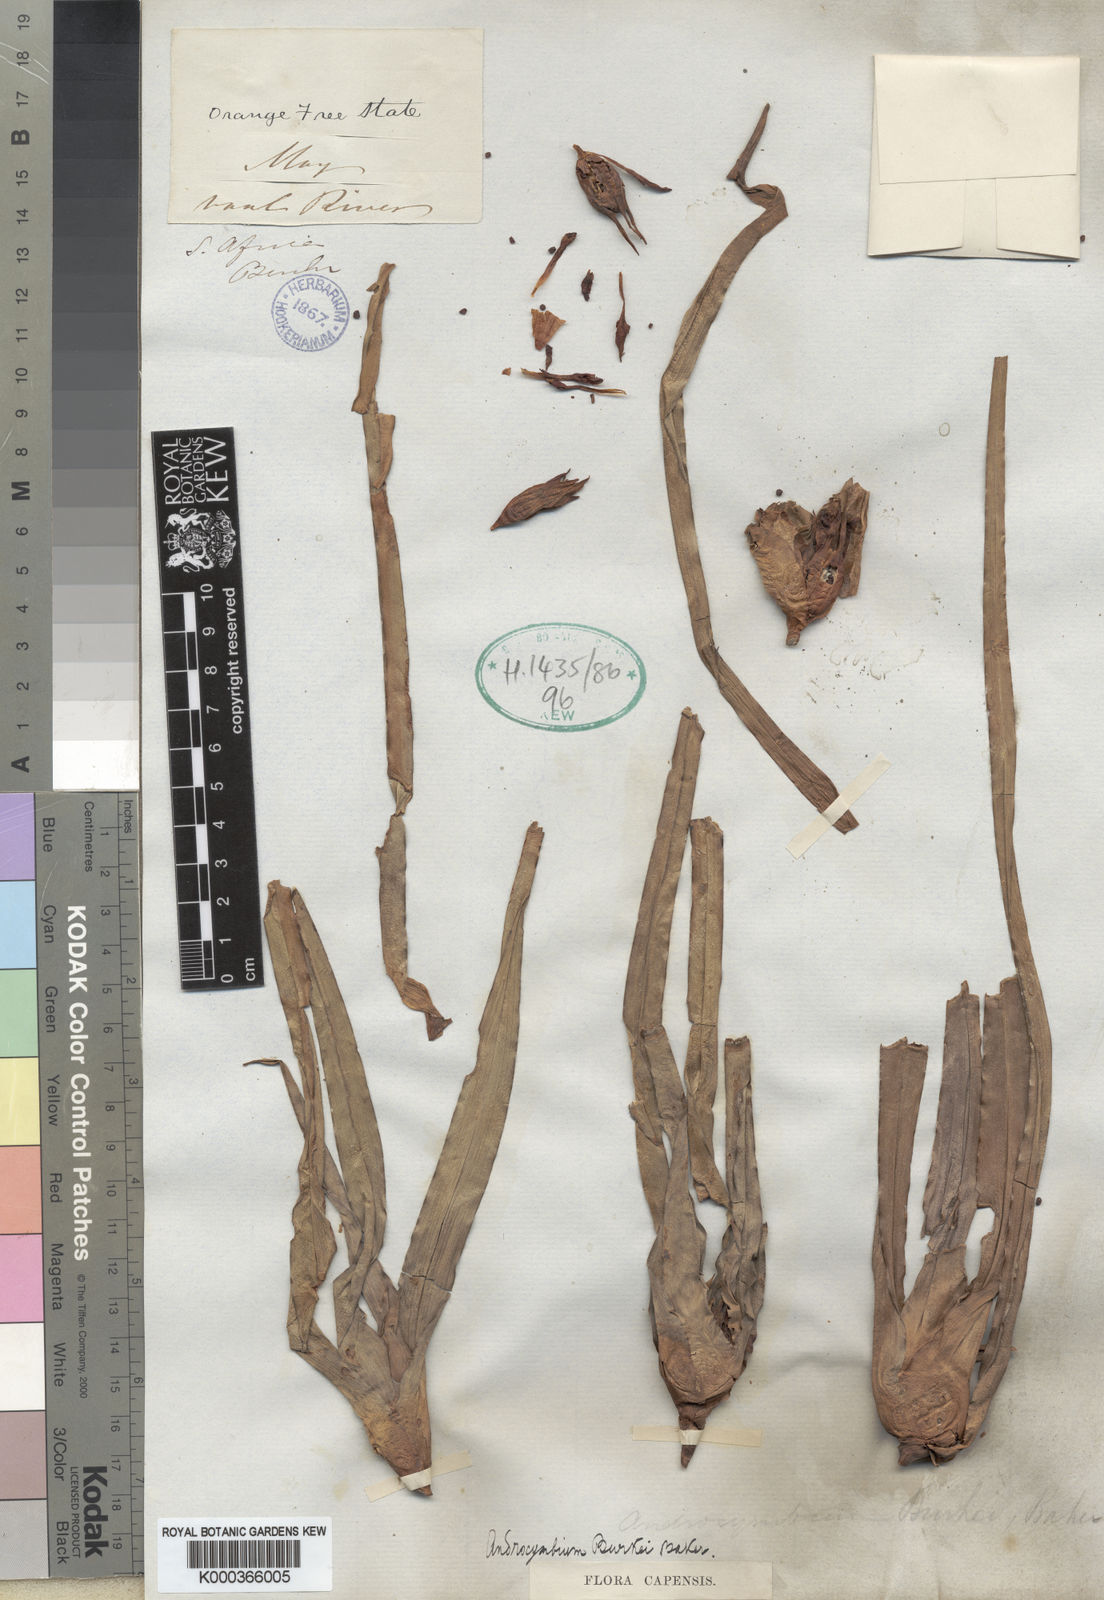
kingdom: Plantae
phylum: Tracheophyta
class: Liliopsida
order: Liliales
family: Colchicaceae
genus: Colchicum
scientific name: Colchicum burkei
